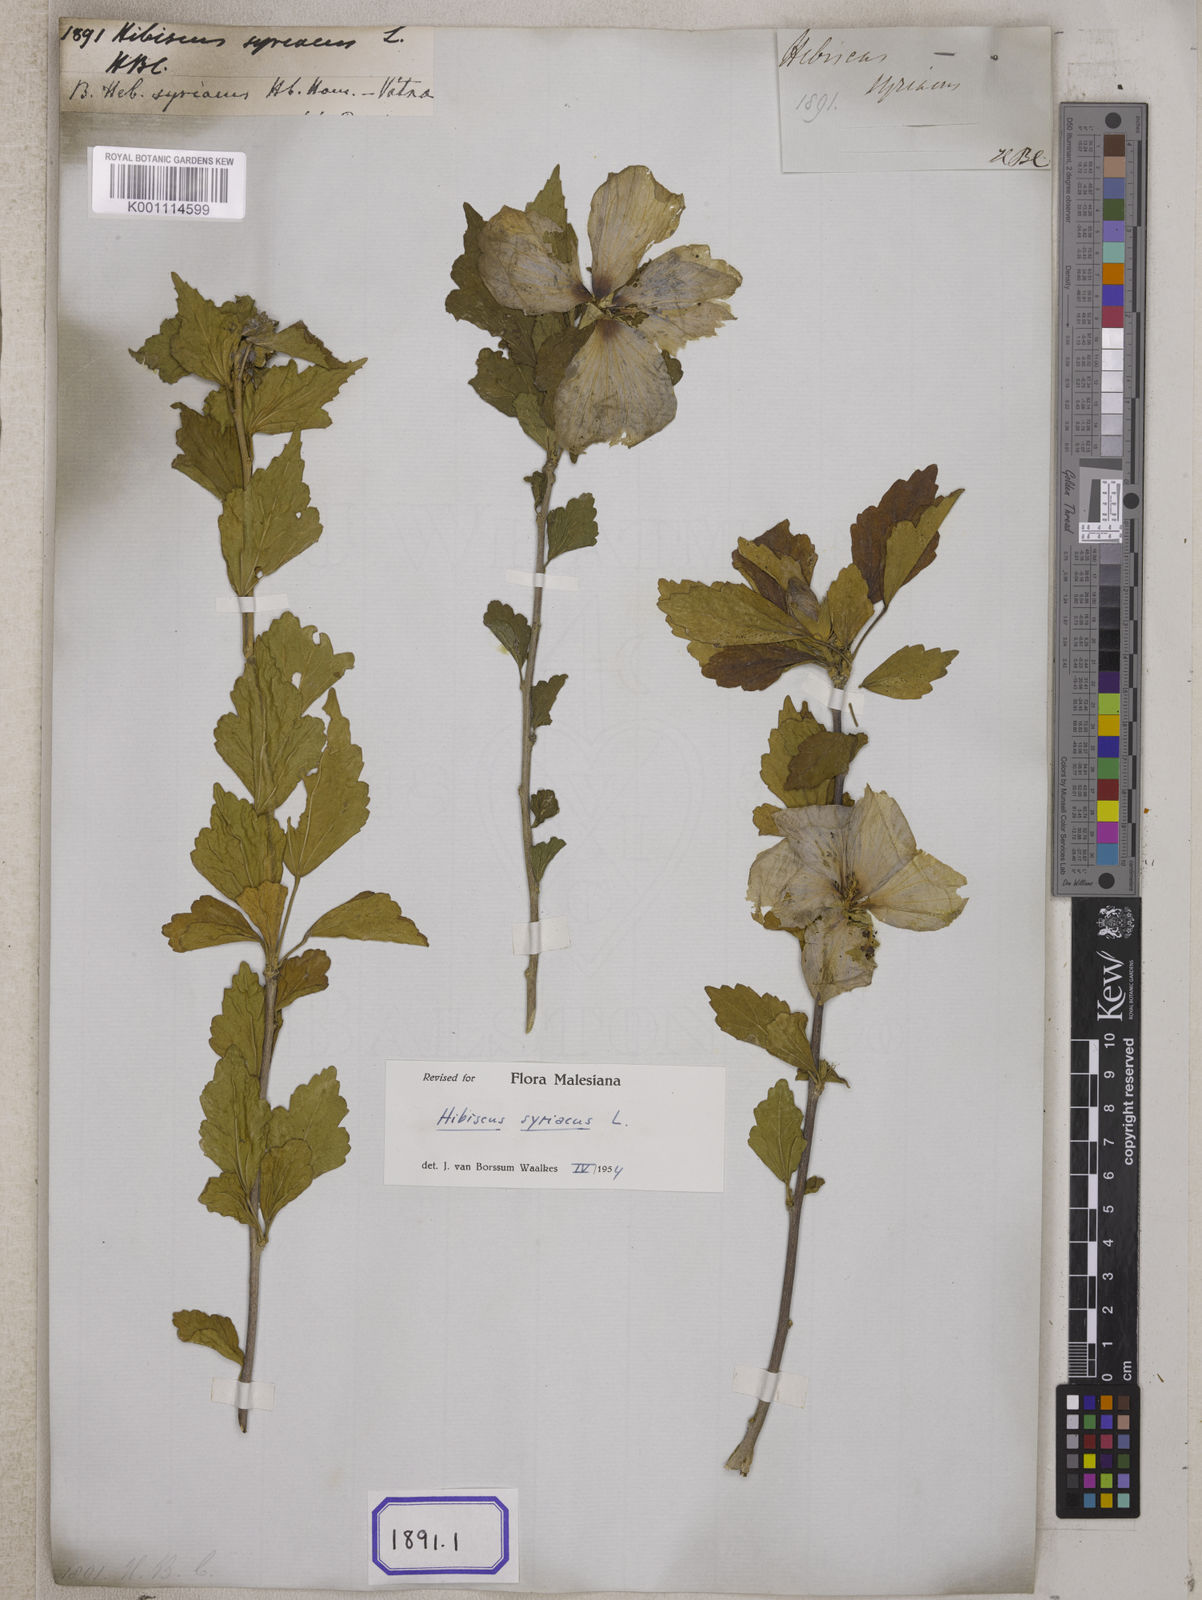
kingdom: Plantae
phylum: Tracheophyta
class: Magnoliopsida
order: Malvales
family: Malvaceae
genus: Hibiscus
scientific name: Hibiscus syriacus
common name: Syrian ketmia
